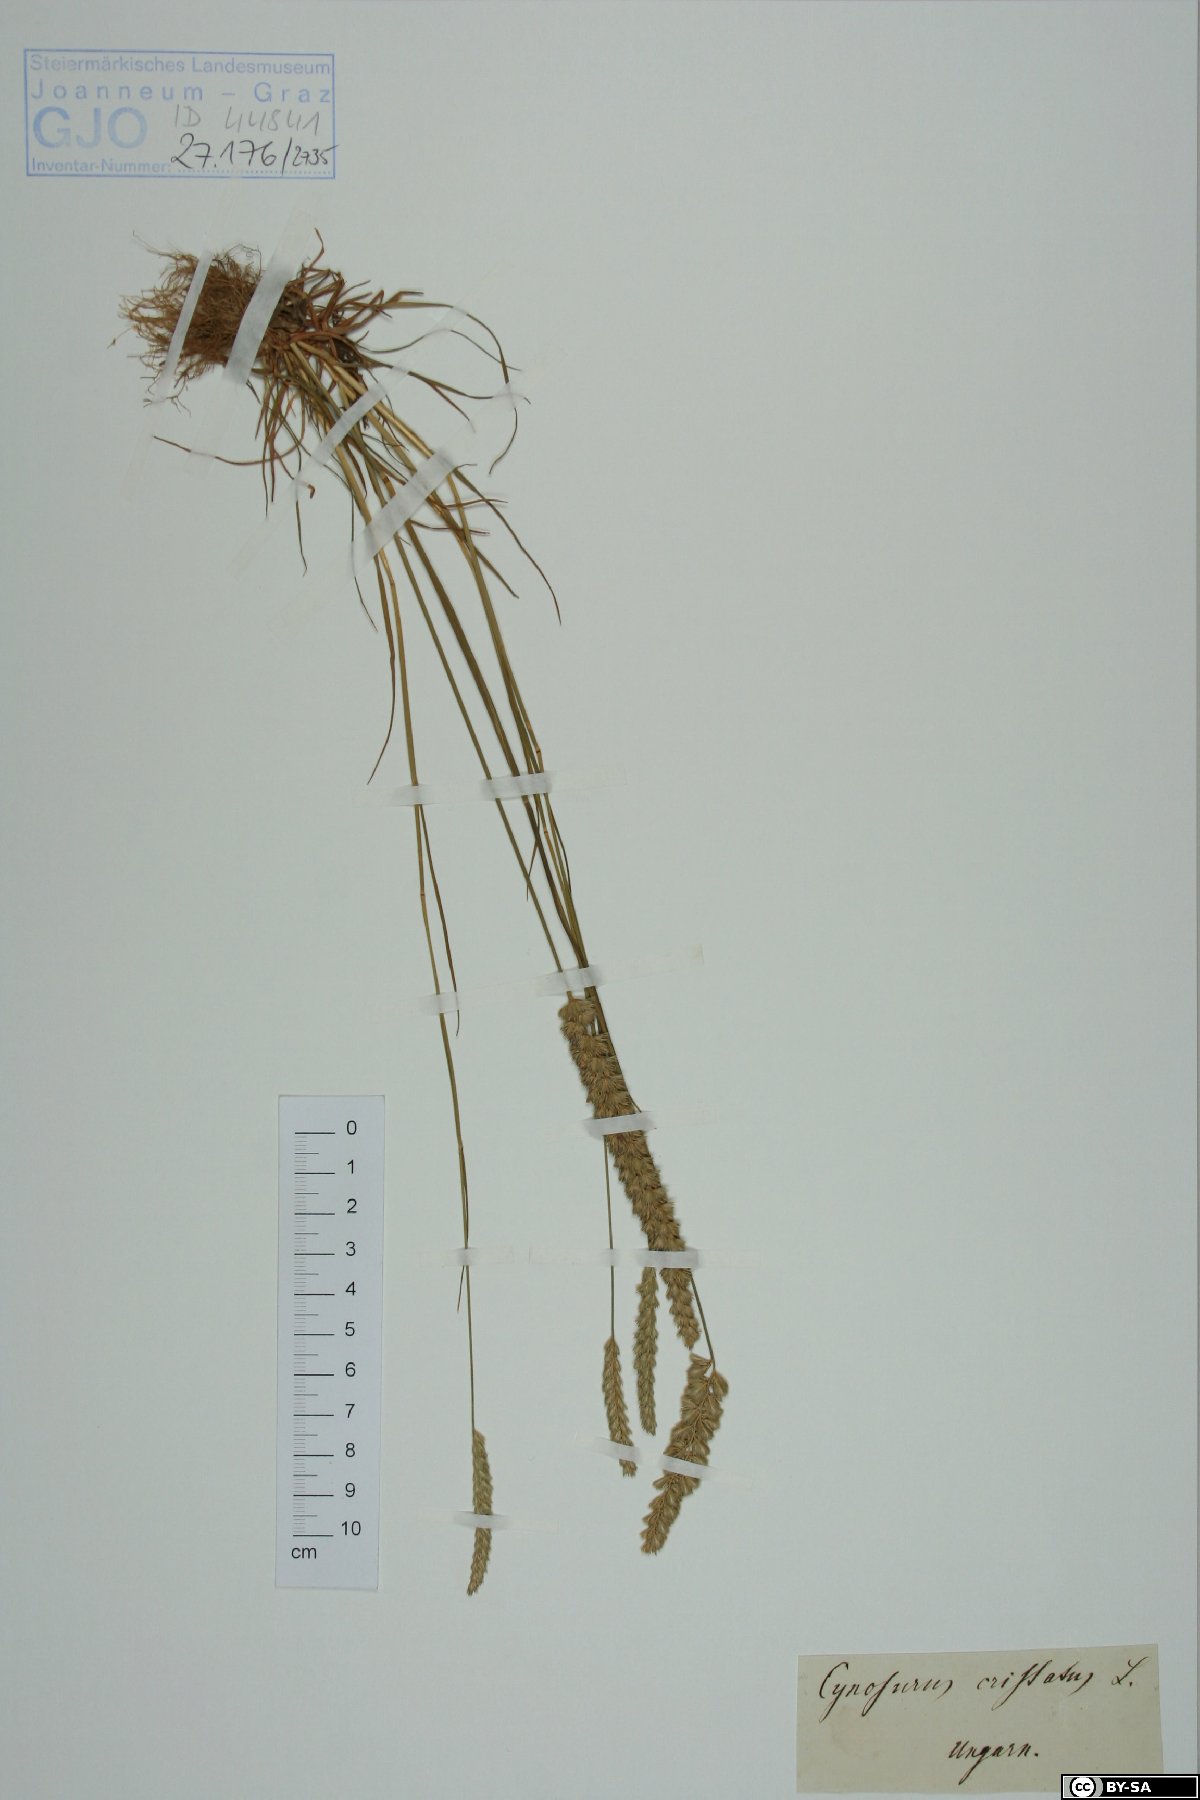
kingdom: Plantae
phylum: Tracheophyta
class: Liliopsida
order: Poales
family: Poaceae
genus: Cynosurus
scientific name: Cynosurus cristatus
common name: Crested dog's-tail
